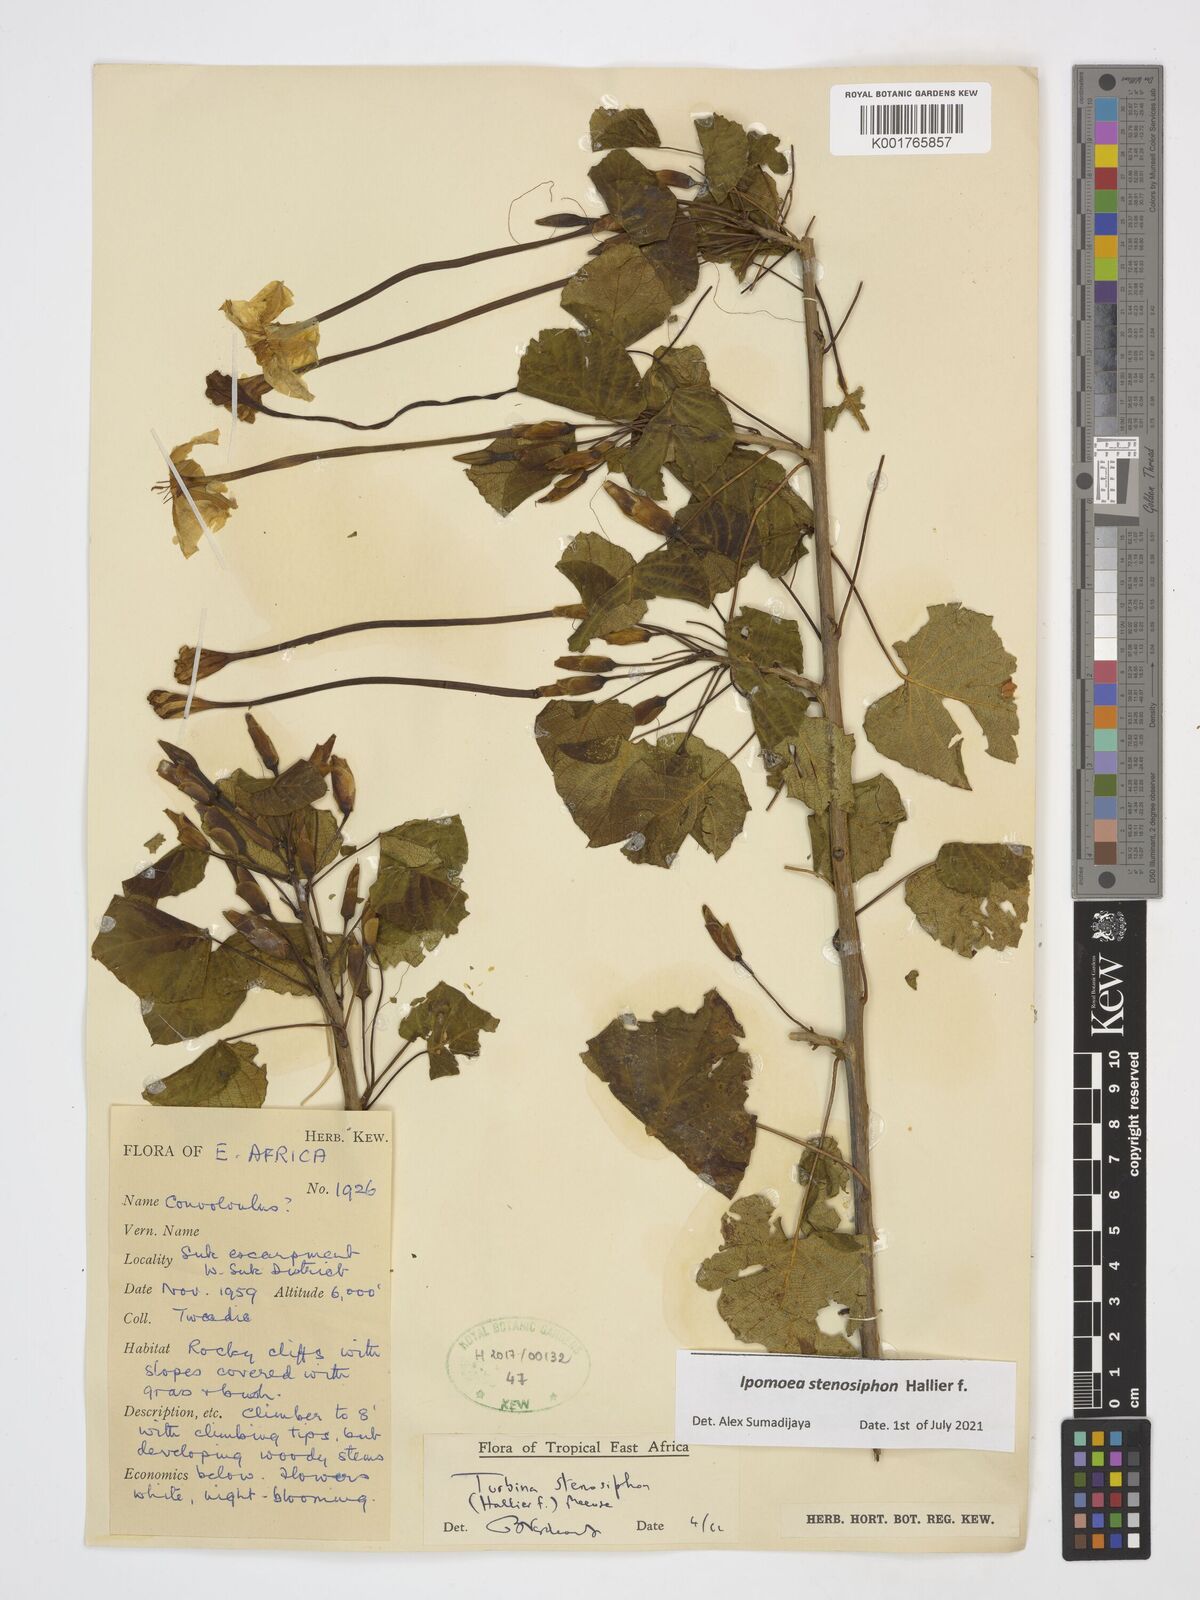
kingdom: Plantae
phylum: Tracheophyta
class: Magnoliopsida
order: Solanales
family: Convolvulaceae
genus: Ipomoea
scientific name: Ipomoea stenosiphon
